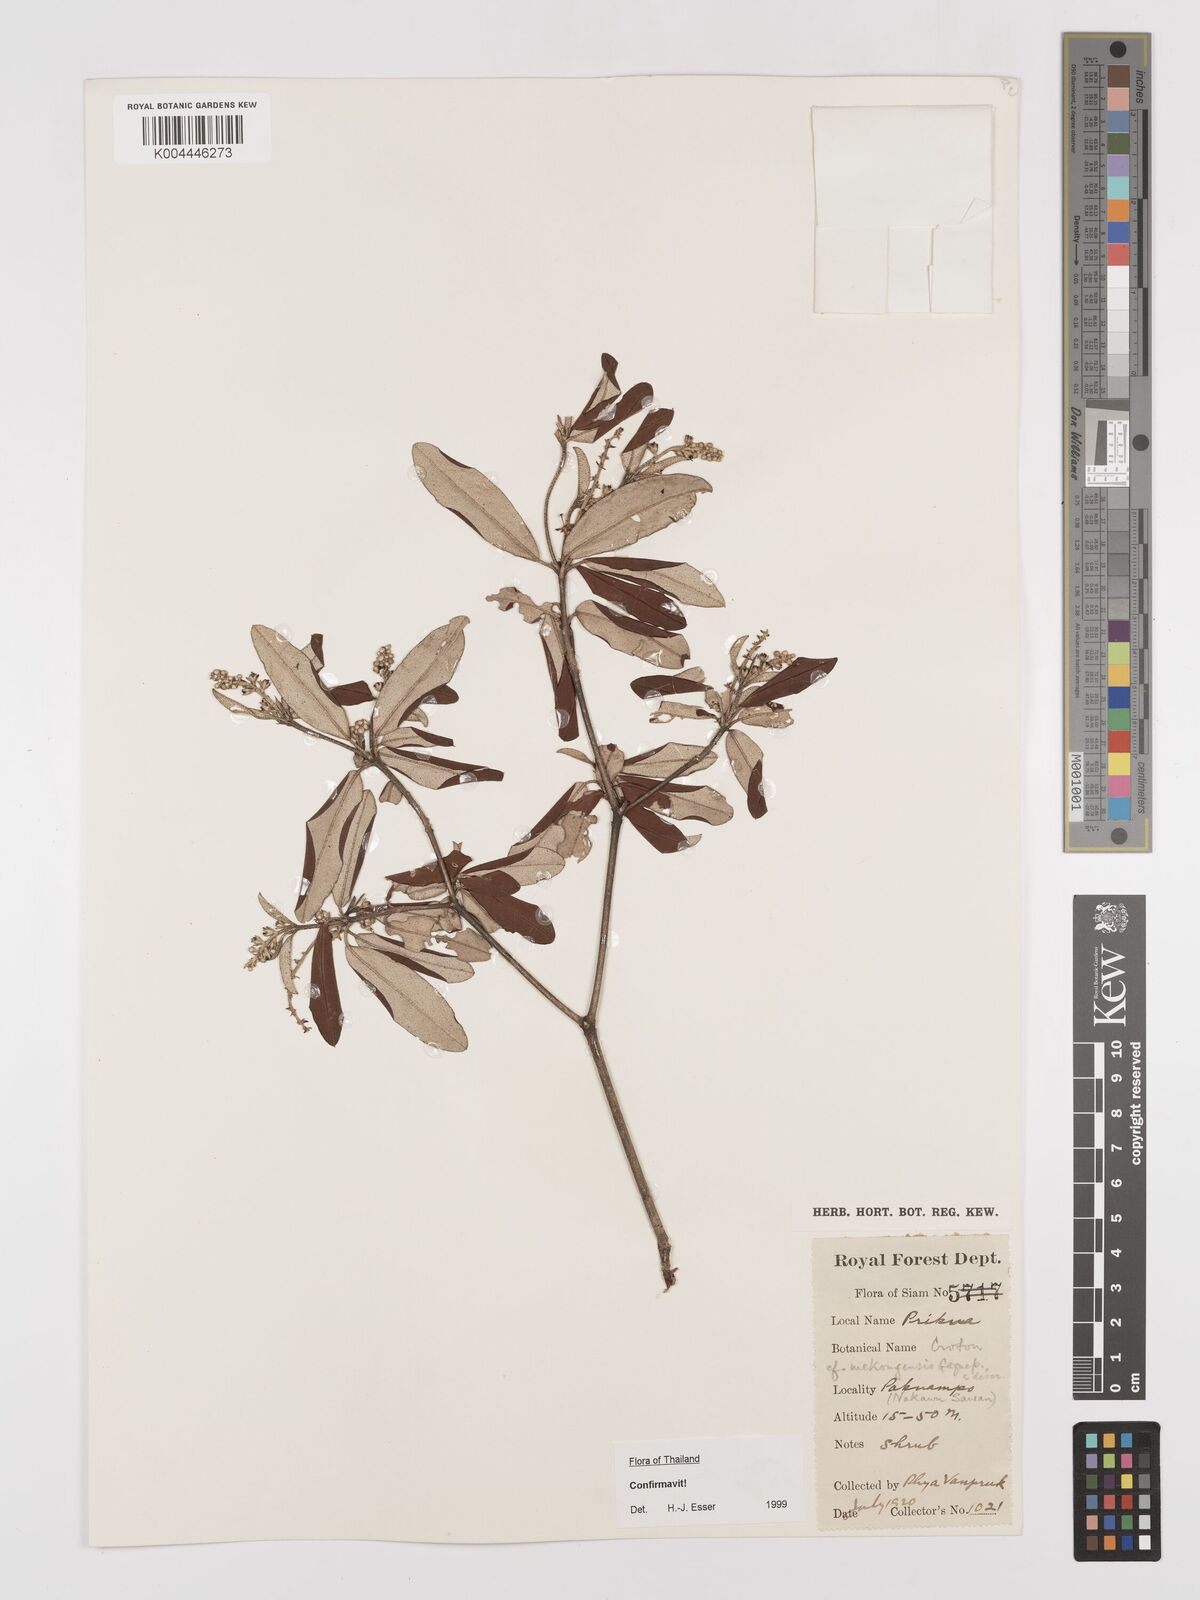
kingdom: Plantae
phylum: Tracheophyta
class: Magnoliopsida
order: Malpighiales
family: Euphorbiaceae
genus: Croton
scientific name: Croton mekongensis
